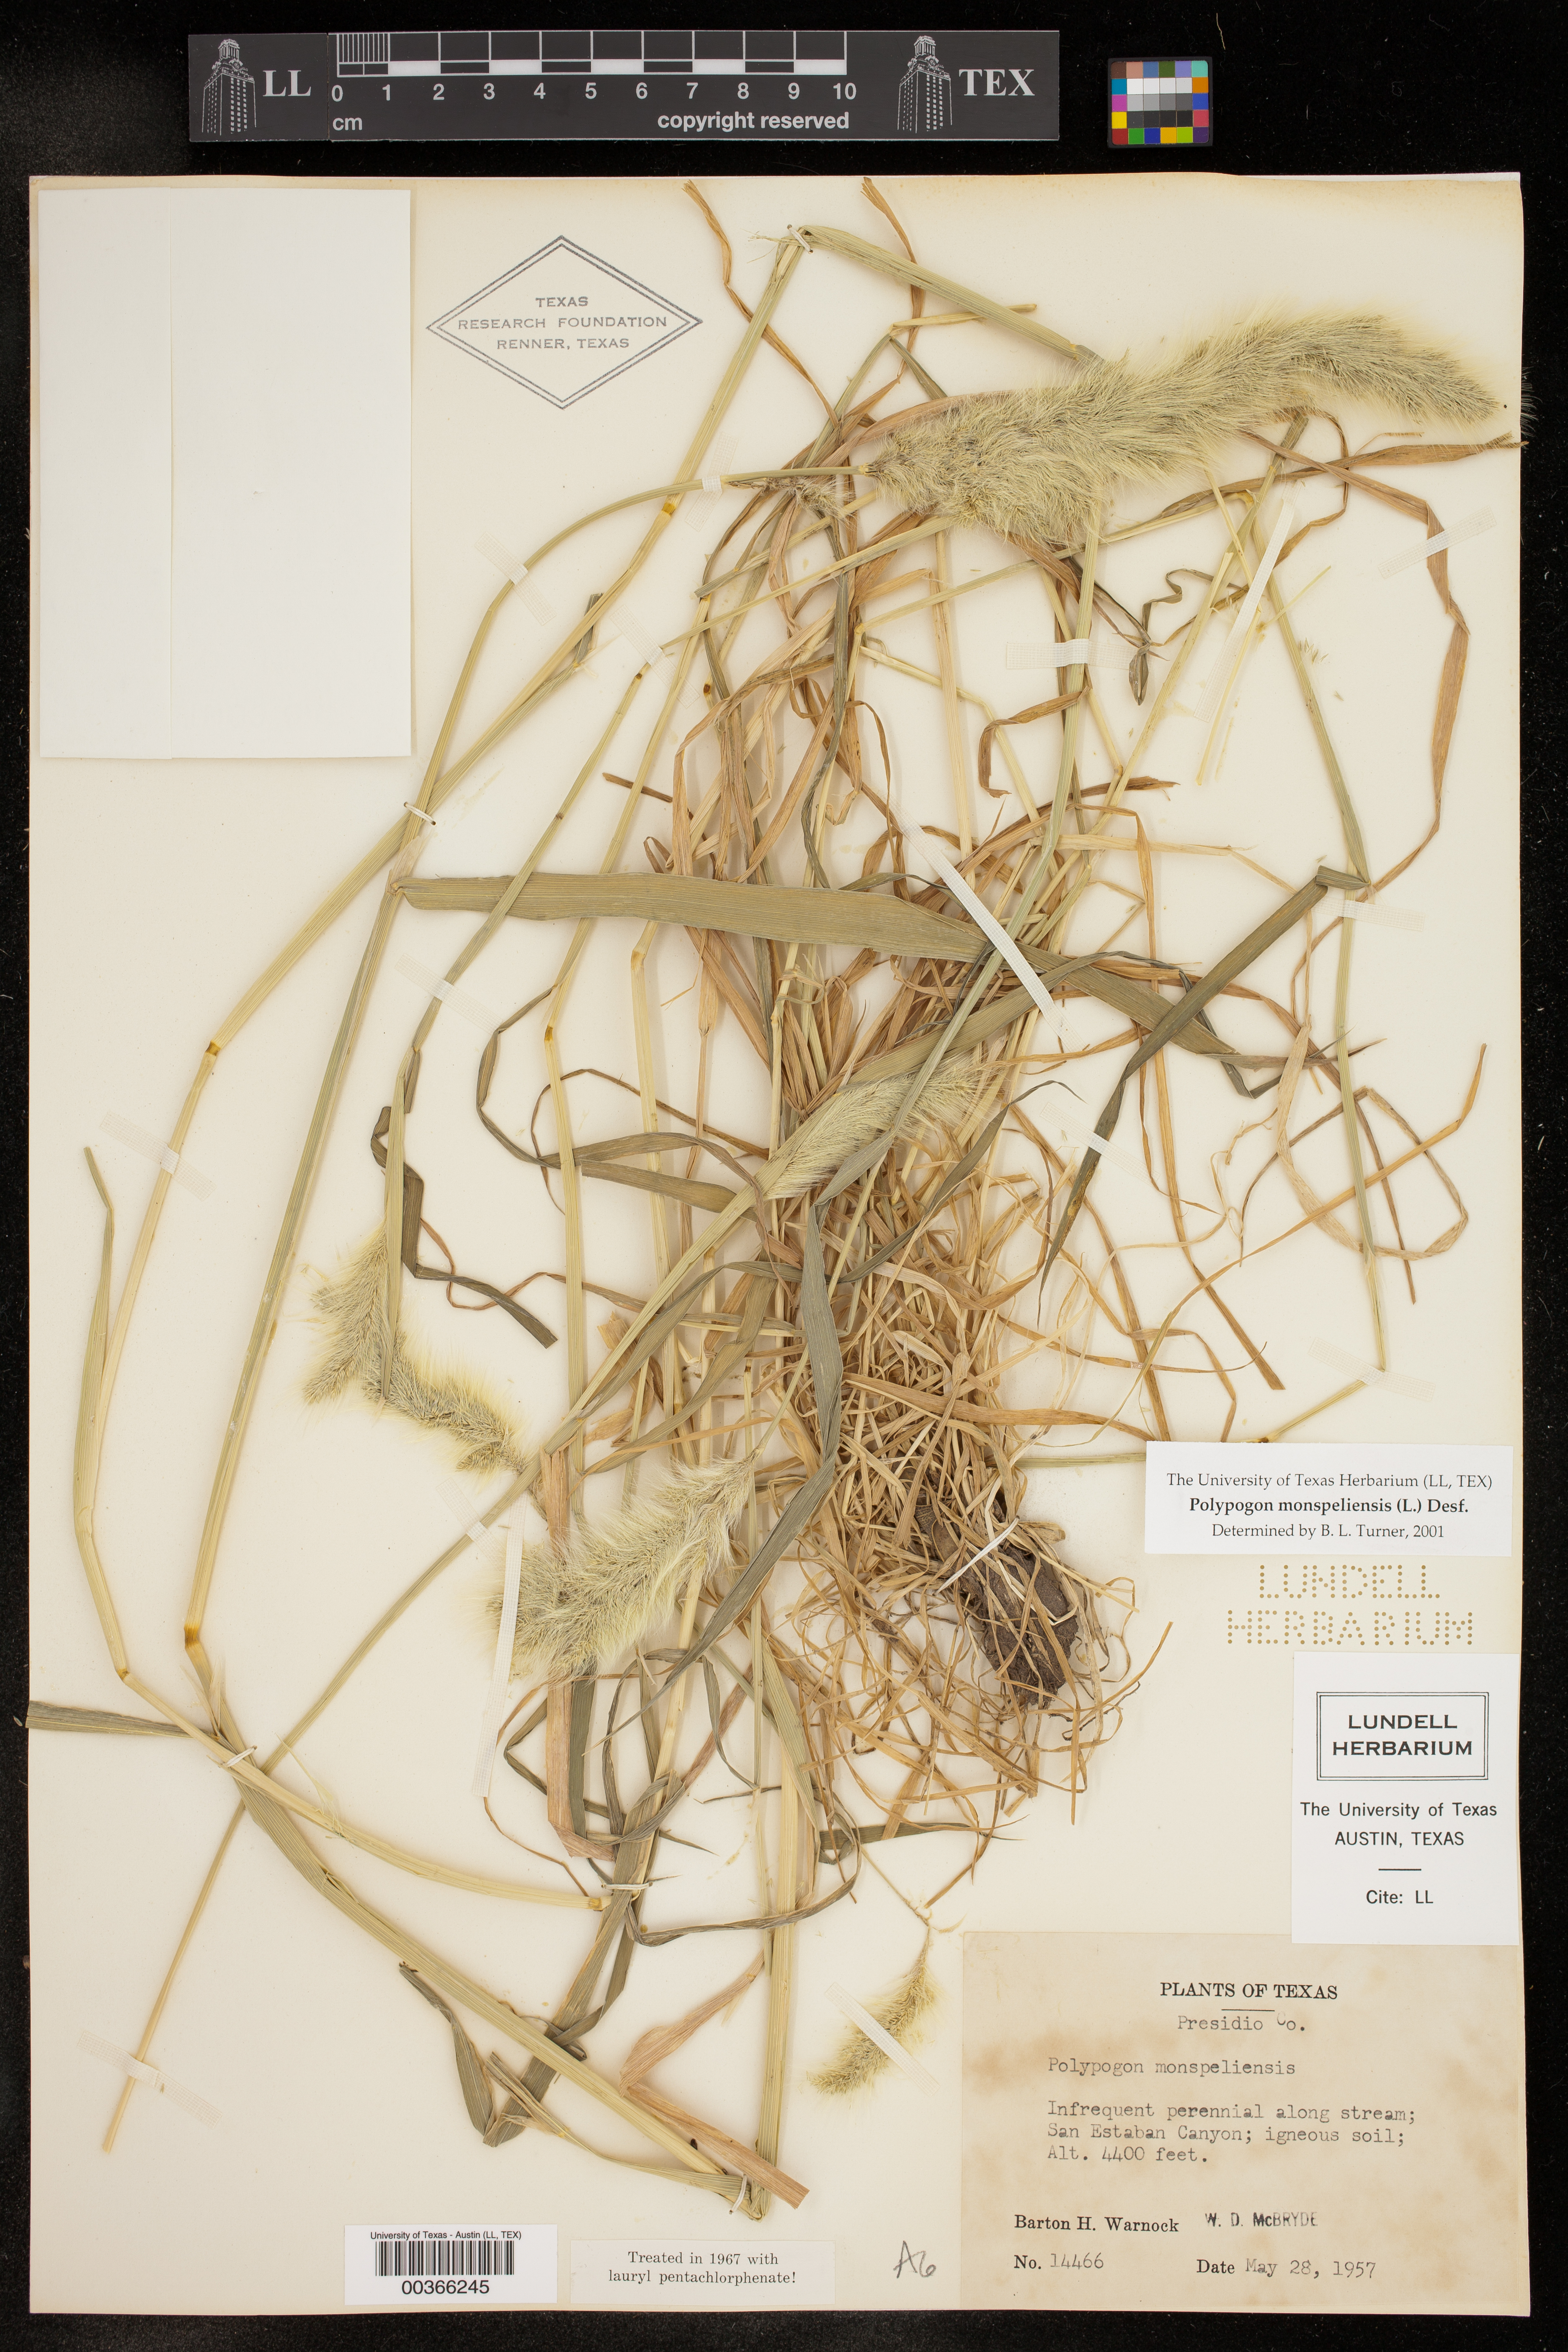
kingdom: Plantae
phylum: Tracheophyta
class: Liliopsida
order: Poales
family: Poaceae
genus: Polypogon
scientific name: Polypogon monspeliensis
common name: Annual rabbitsfoot grass
